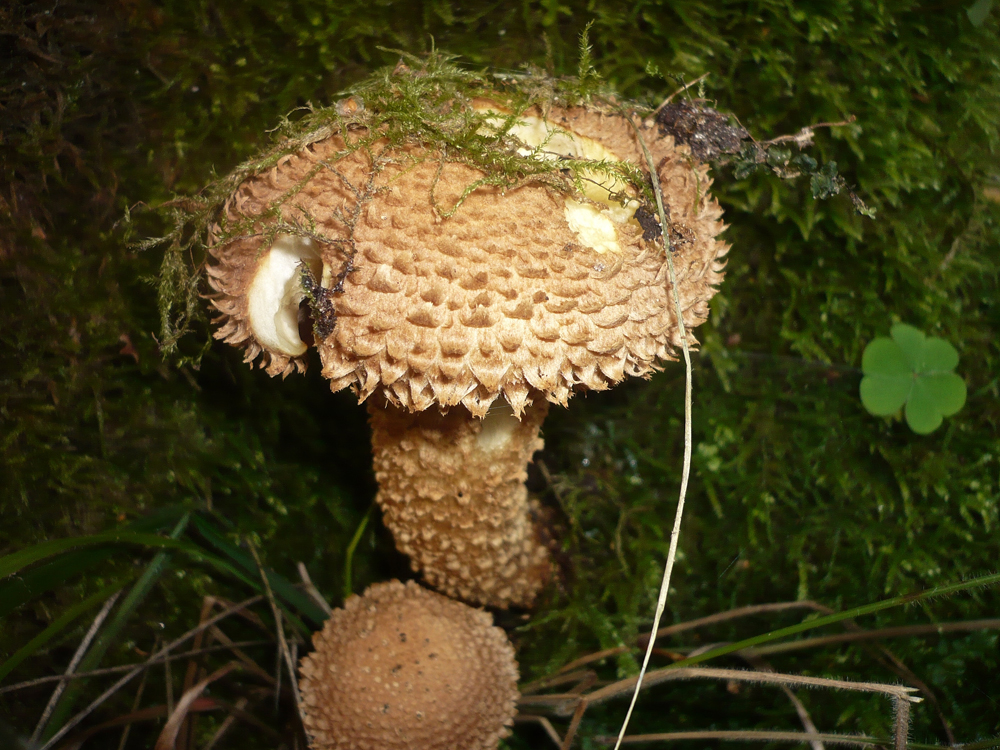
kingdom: Fungi
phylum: Basidiomycota
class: Agaricomycetes
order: Agaricales
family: Strophariaceae
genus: Pholiota
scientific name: Pholiota squarrosa
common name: Shaggy pholiota
